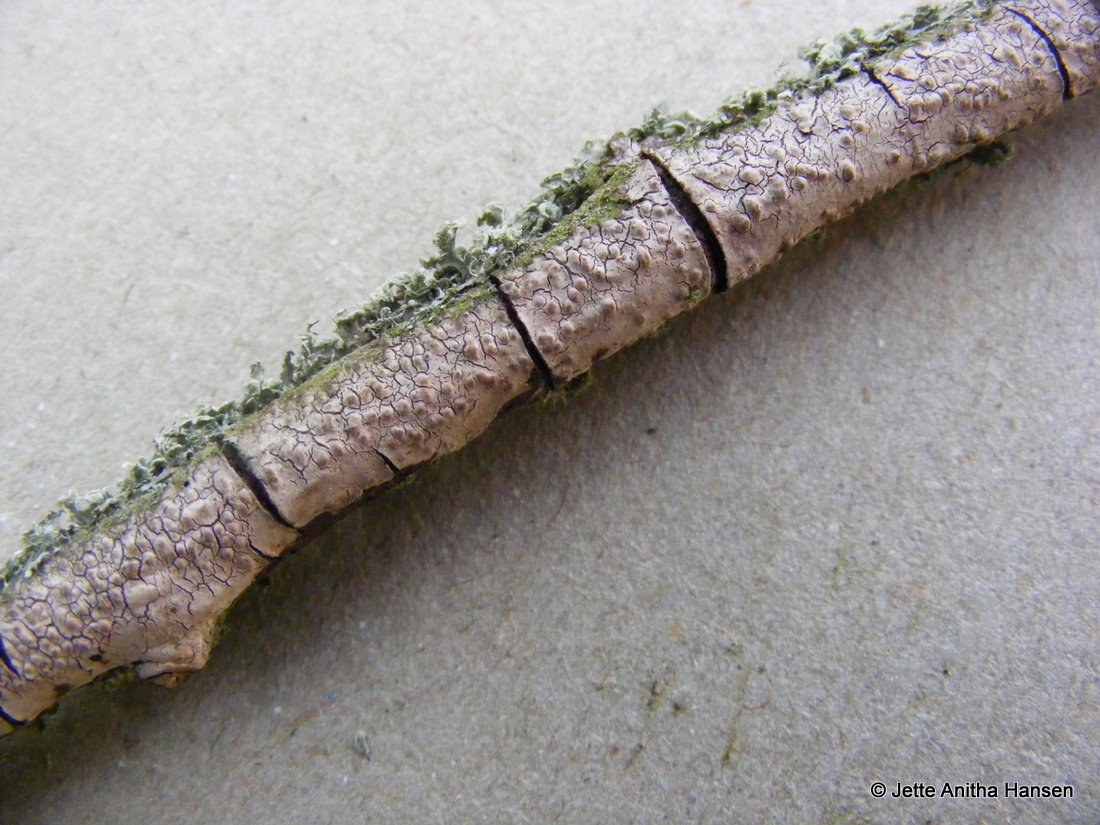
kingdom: Fungi
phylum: Basidiomycota
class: Agaricomycetes
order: Russulales
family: Peniophoraceae
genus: Peniophora
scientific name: Peniophora lycii
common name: grynet voksskind
